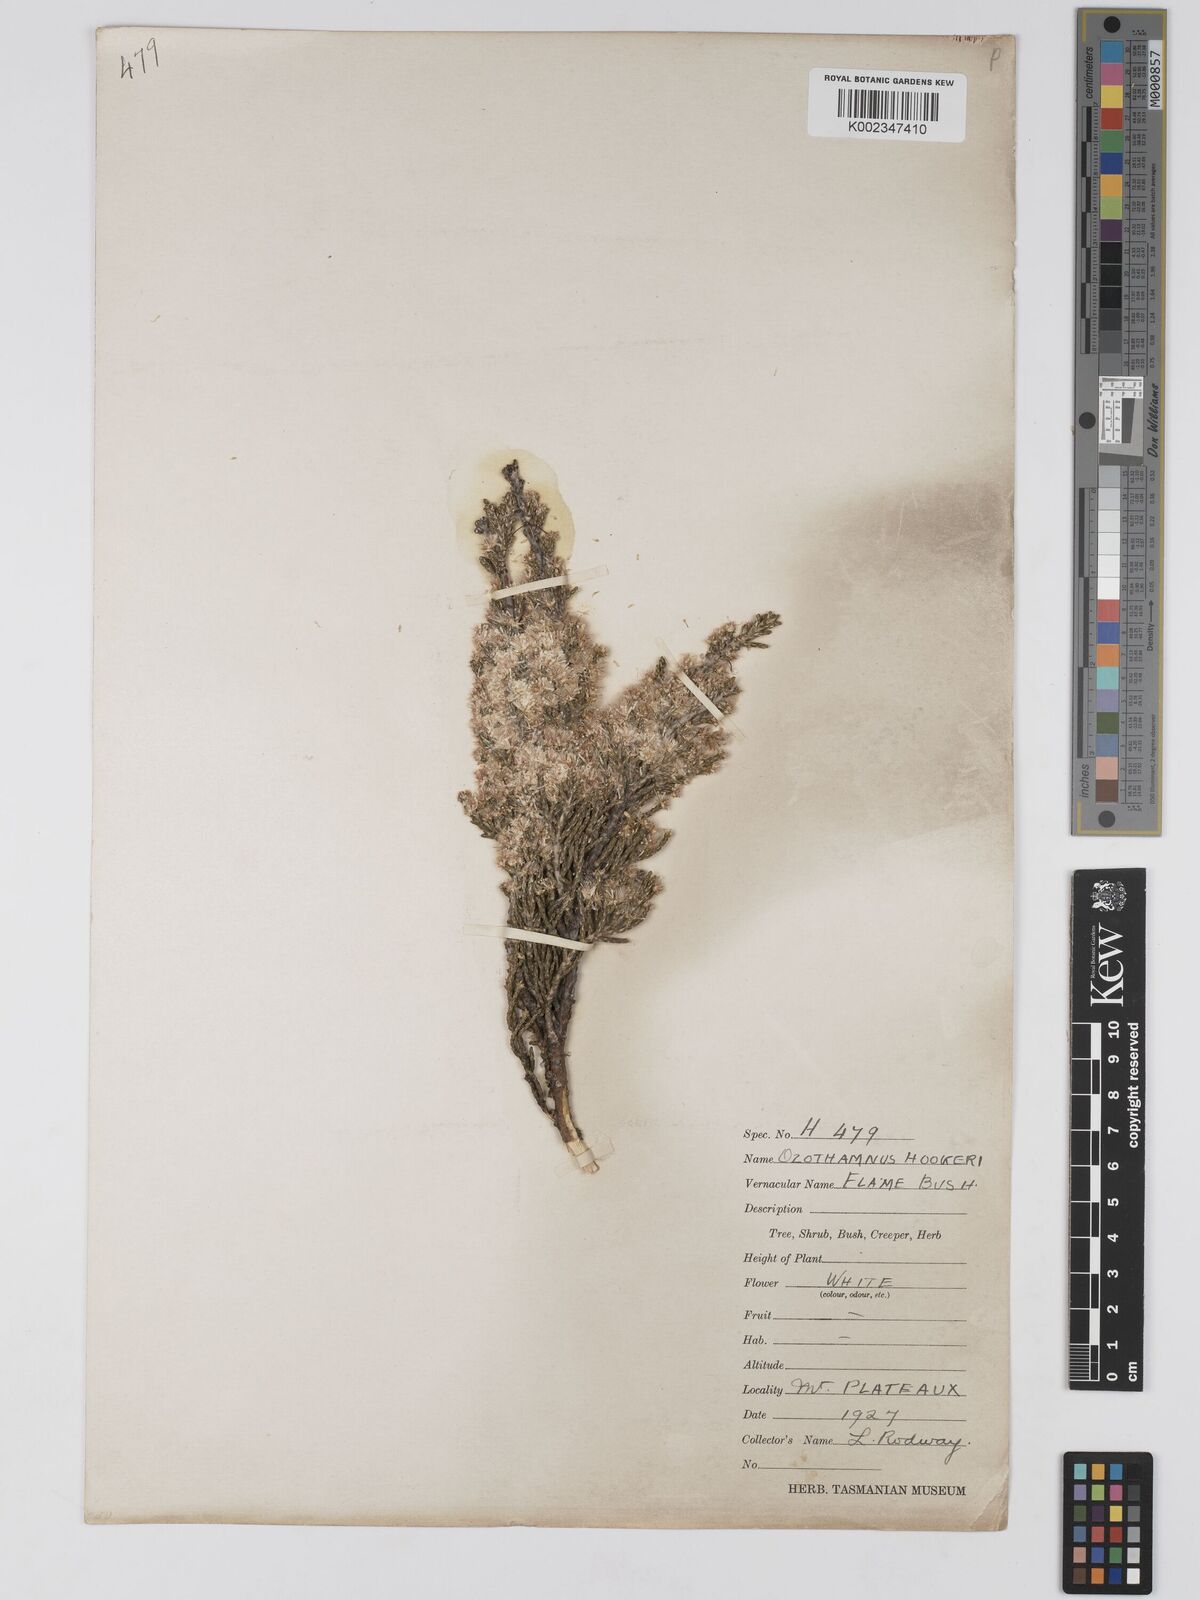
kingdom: Plantae
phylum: Tracheophyta
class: Magnoliopsida
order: Asterales
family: Asteraceae
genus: Ozothamnus
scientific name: Ozothamnus hookeri
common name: Kerosene-bush
